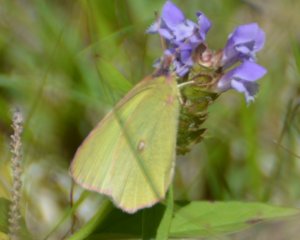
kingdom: Animalia
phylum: Arthropoda
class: Insecta
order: Lepidoptera
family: Pieridae
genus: Colias
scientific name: Colias interior
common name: Pink-edged Sulphur
